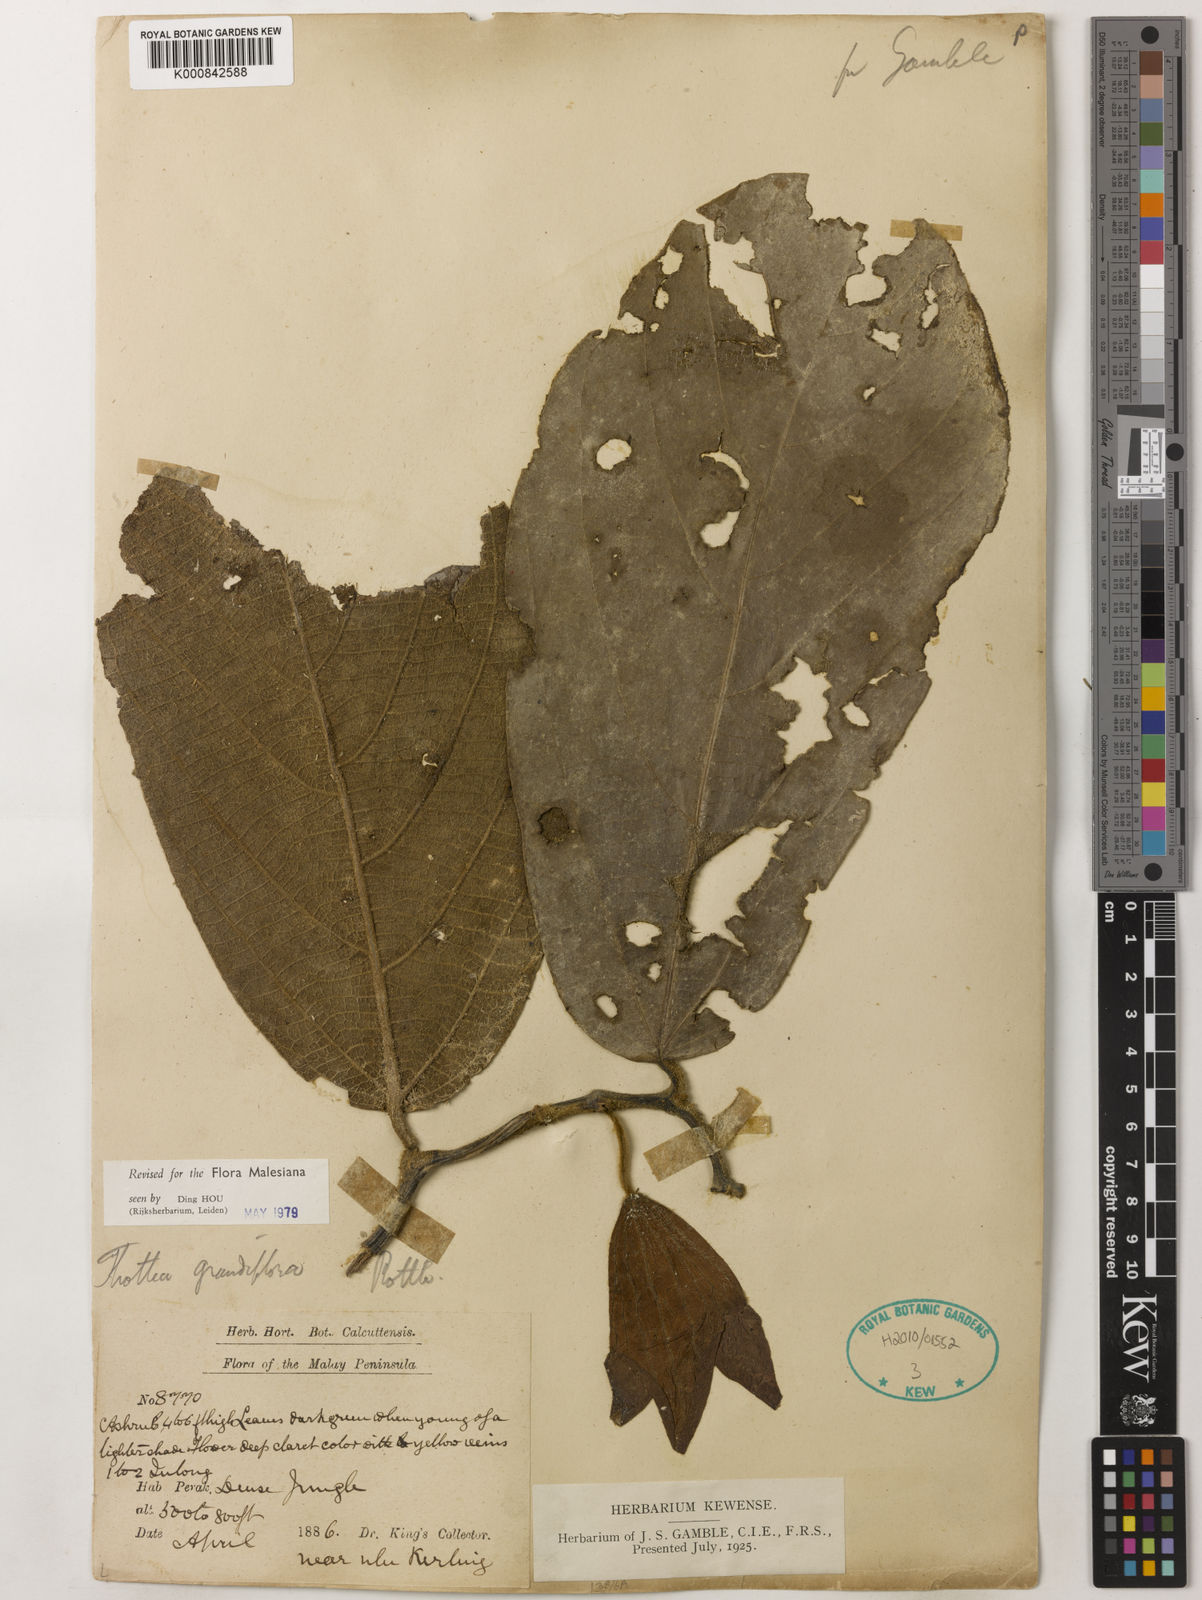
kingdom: Plantae
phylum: Tracheophyta
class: Magnoliopsida
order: Piperales
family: Aristolochiaceae
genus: Thottea
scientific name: Thottea grandiflora
